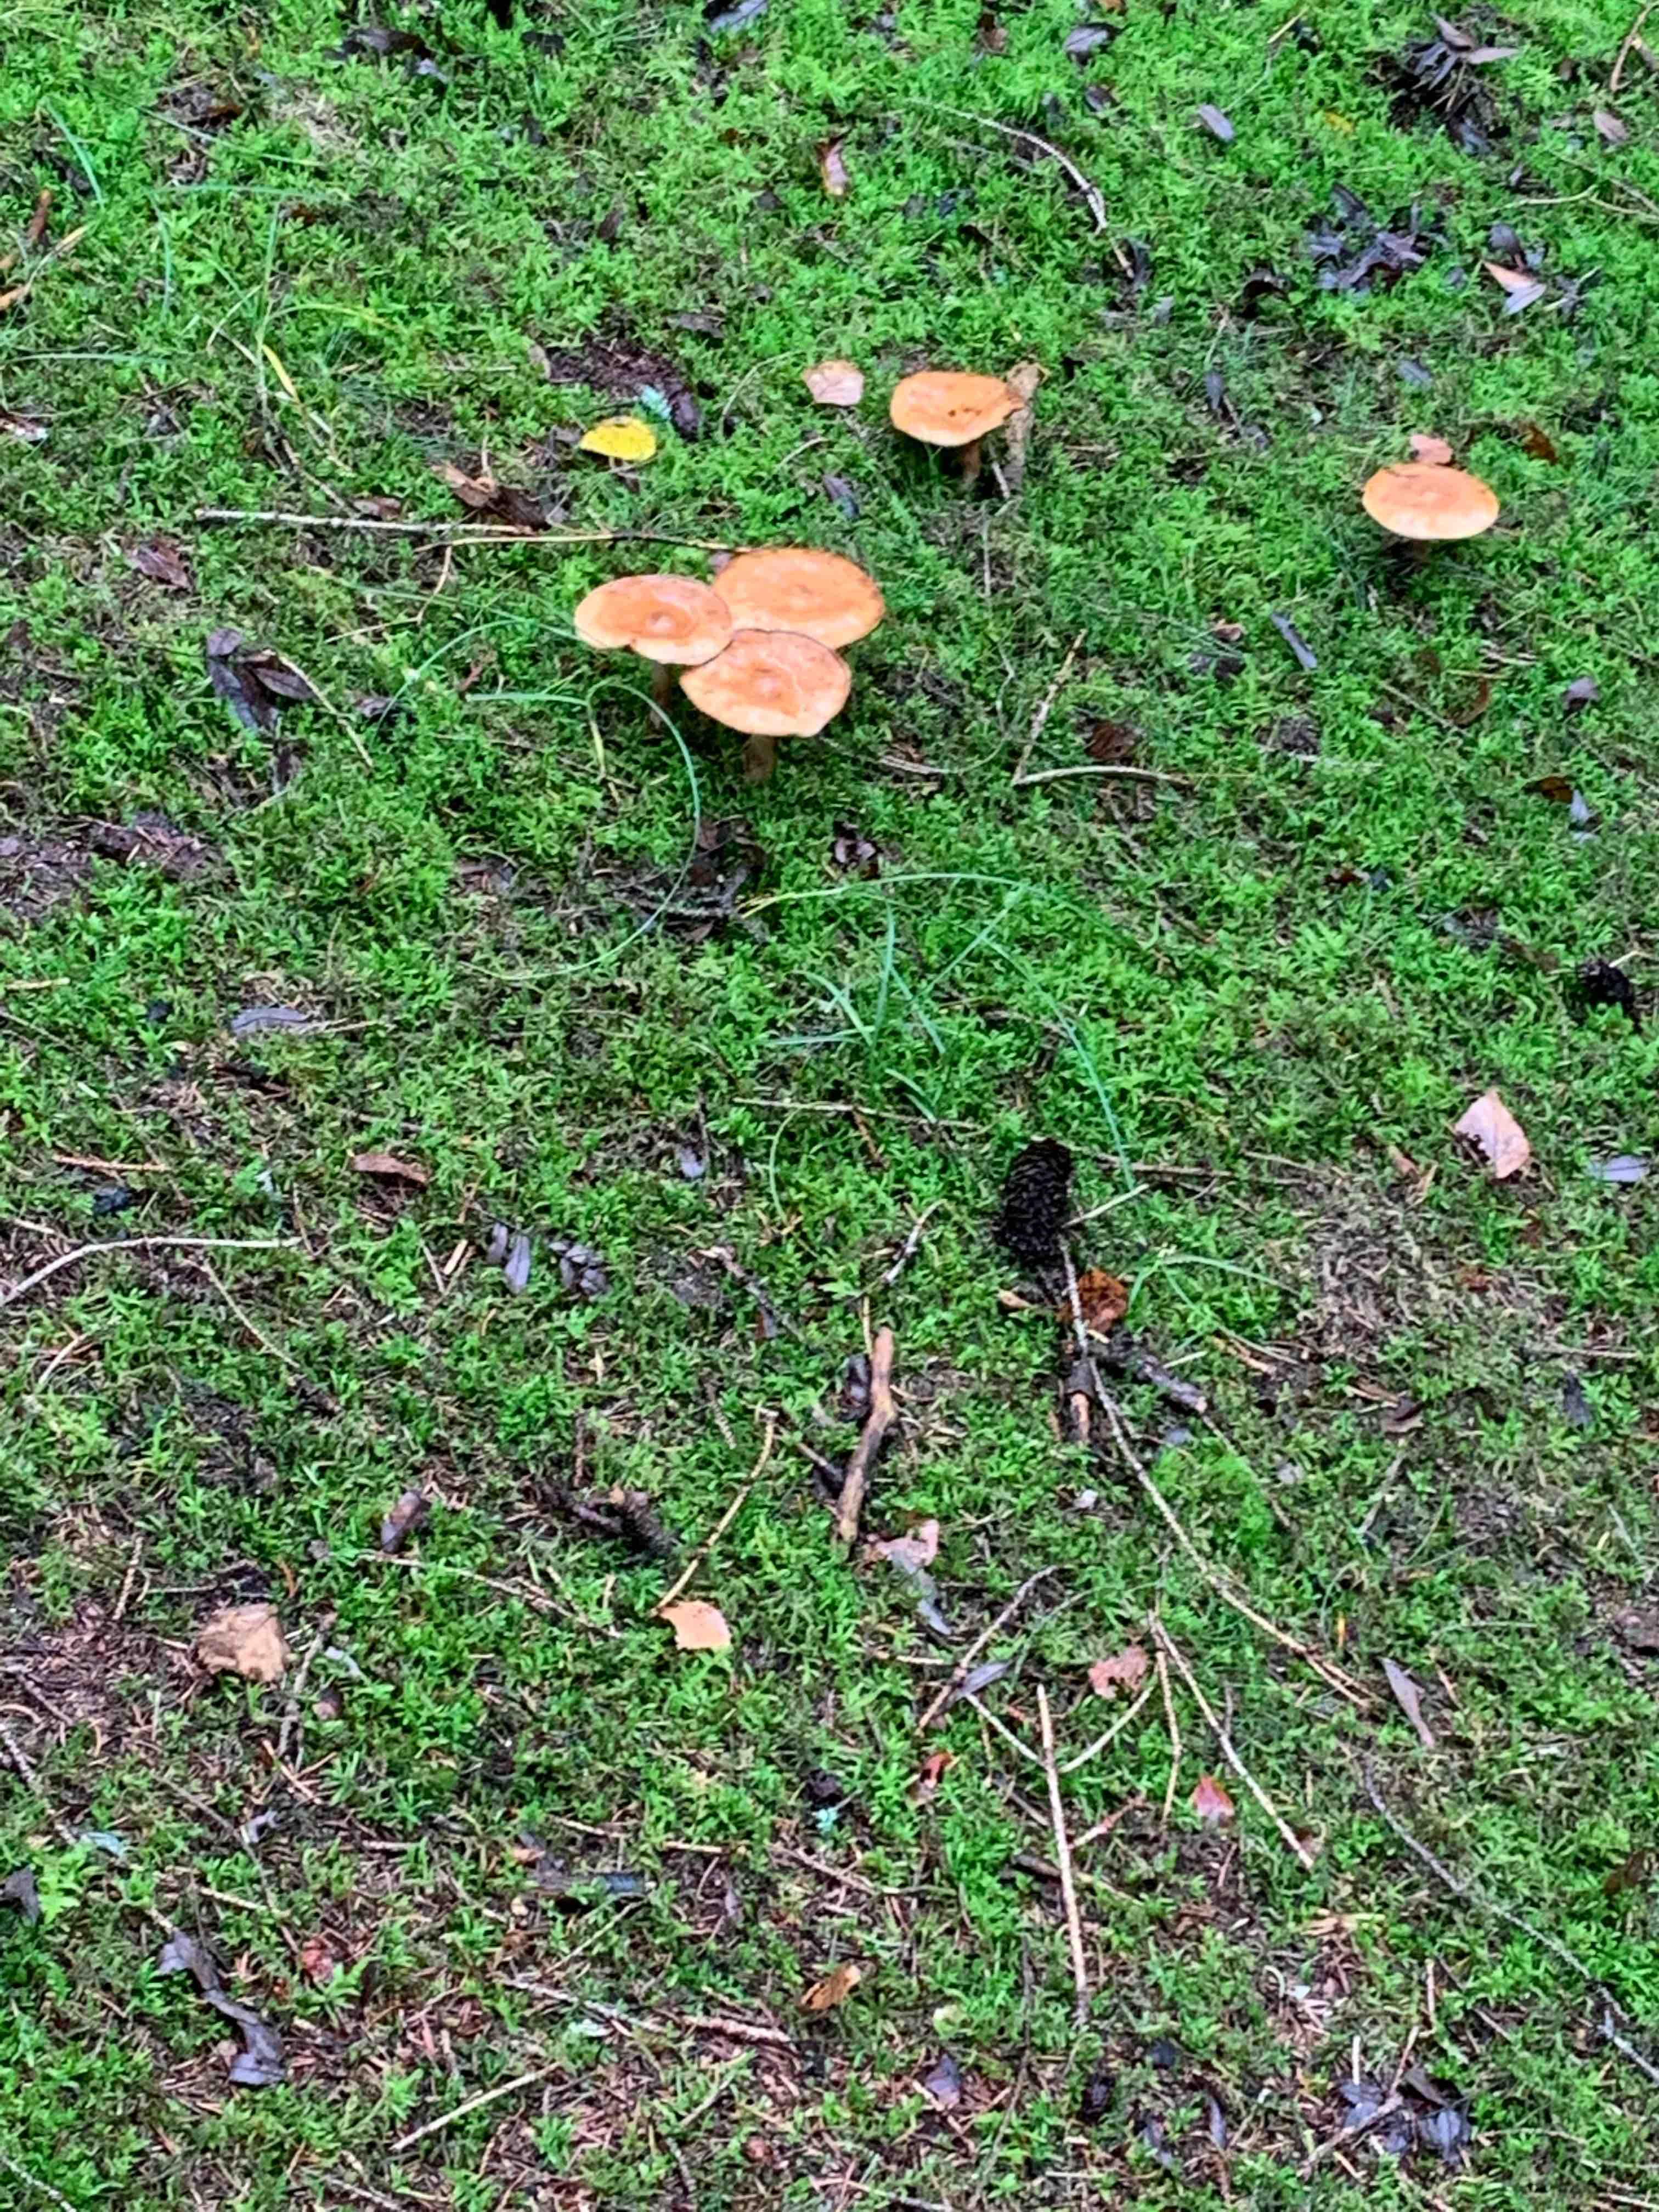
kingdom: Fungi
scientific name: Fungi
